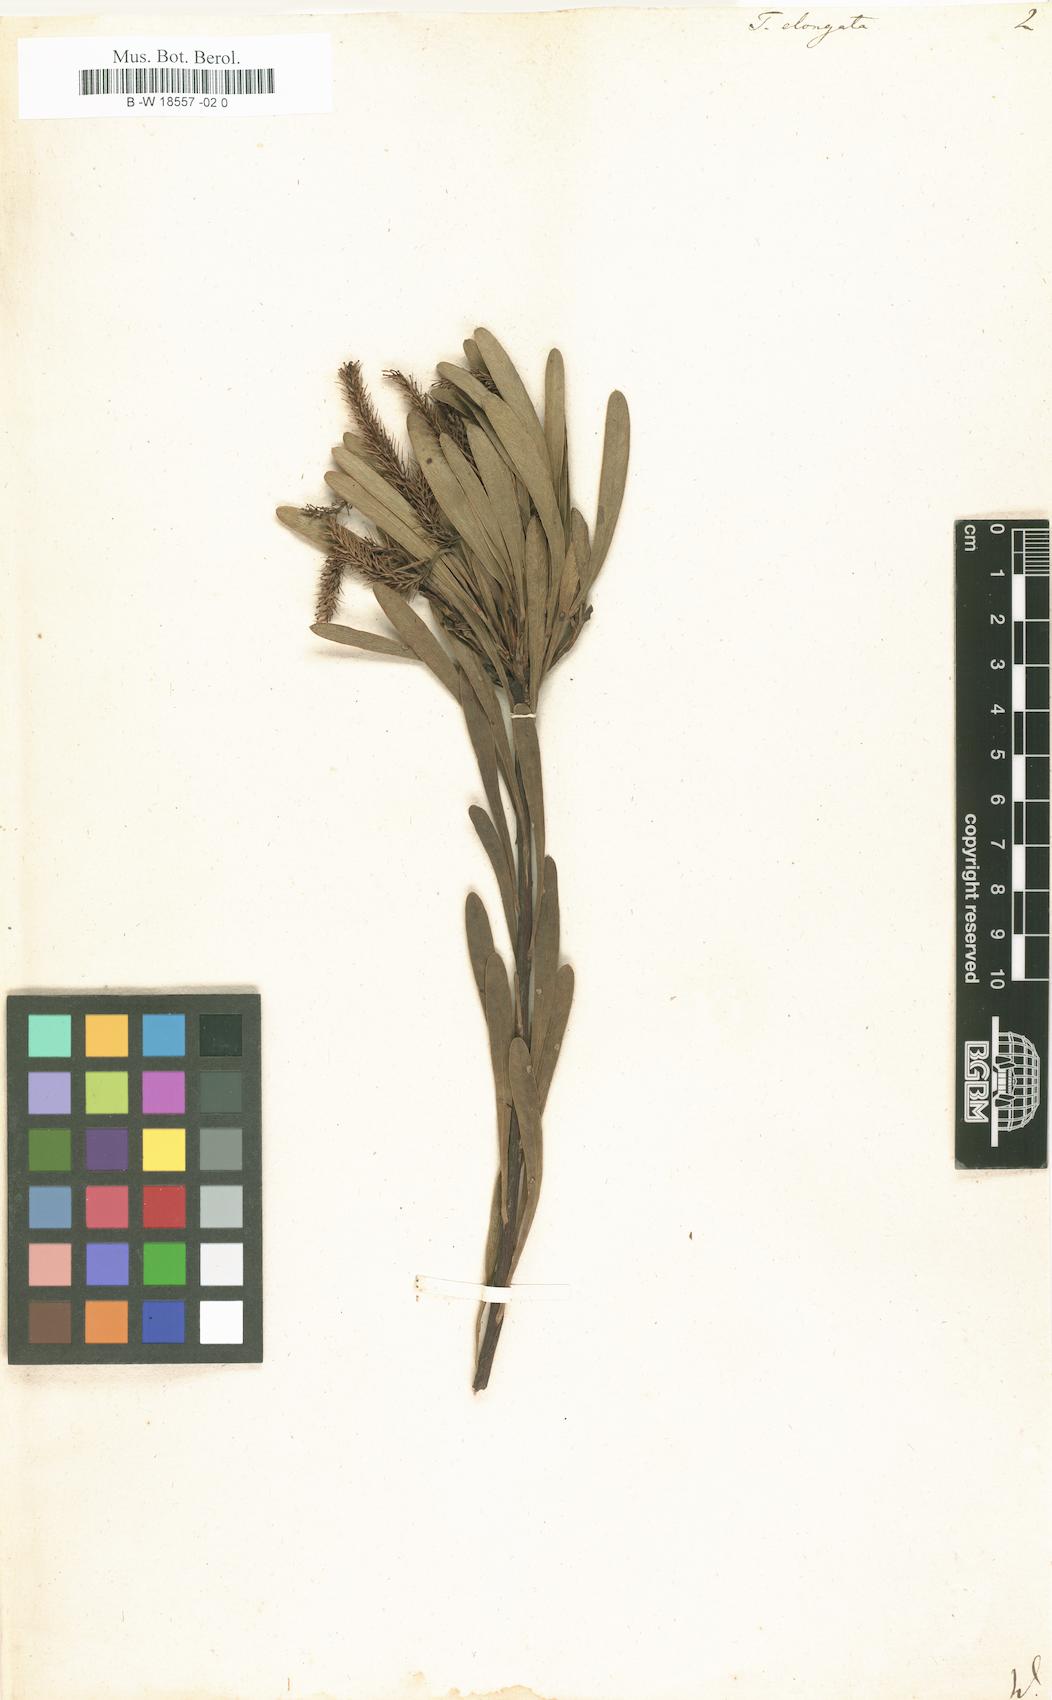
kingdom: Plantae
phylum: Tracheophyta
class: Pinopsida
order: Pinales
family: Podocarpaceae
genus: Podocarpus
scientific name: Podocarpus elongatus
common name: Breede river yellowwood
